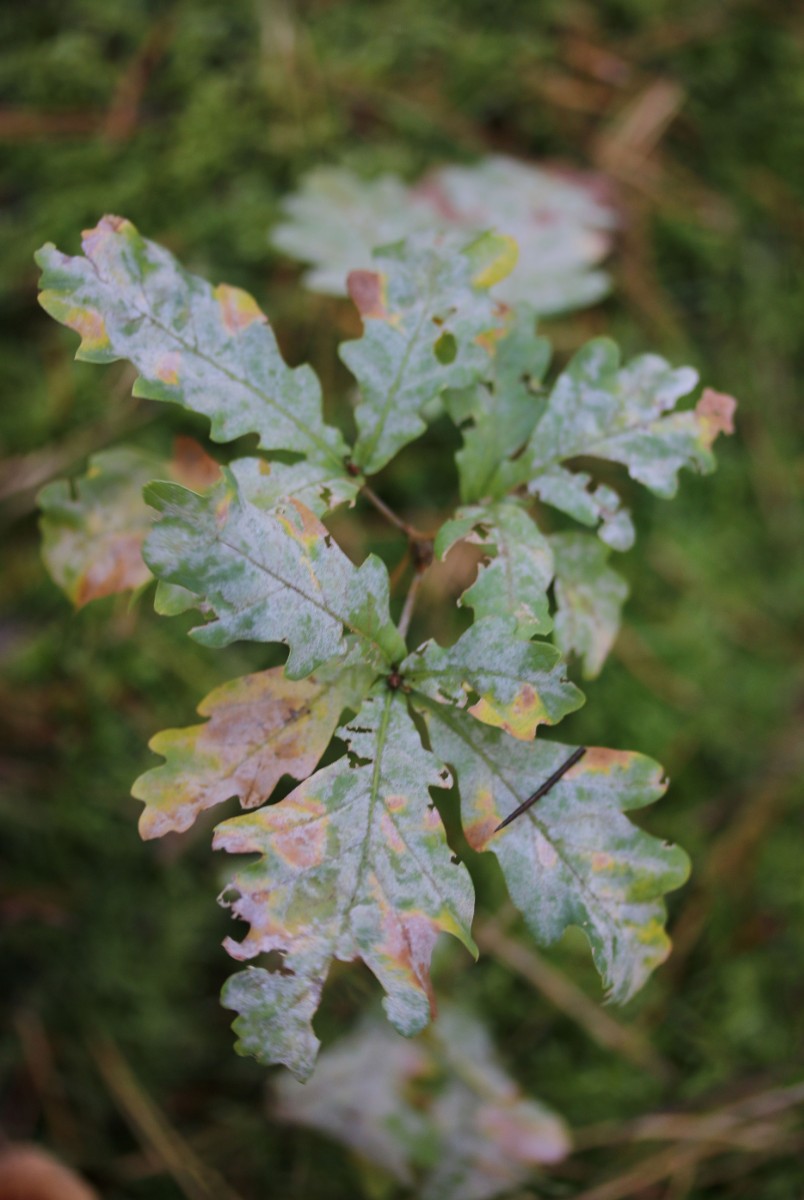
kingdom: Fungi
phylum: Ascomycota
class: Leotiomycetes
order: Helotiales
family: Erysiphaceae
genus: Erysiphe
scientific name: Erysiphe alphitoides
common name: ege-meldug
